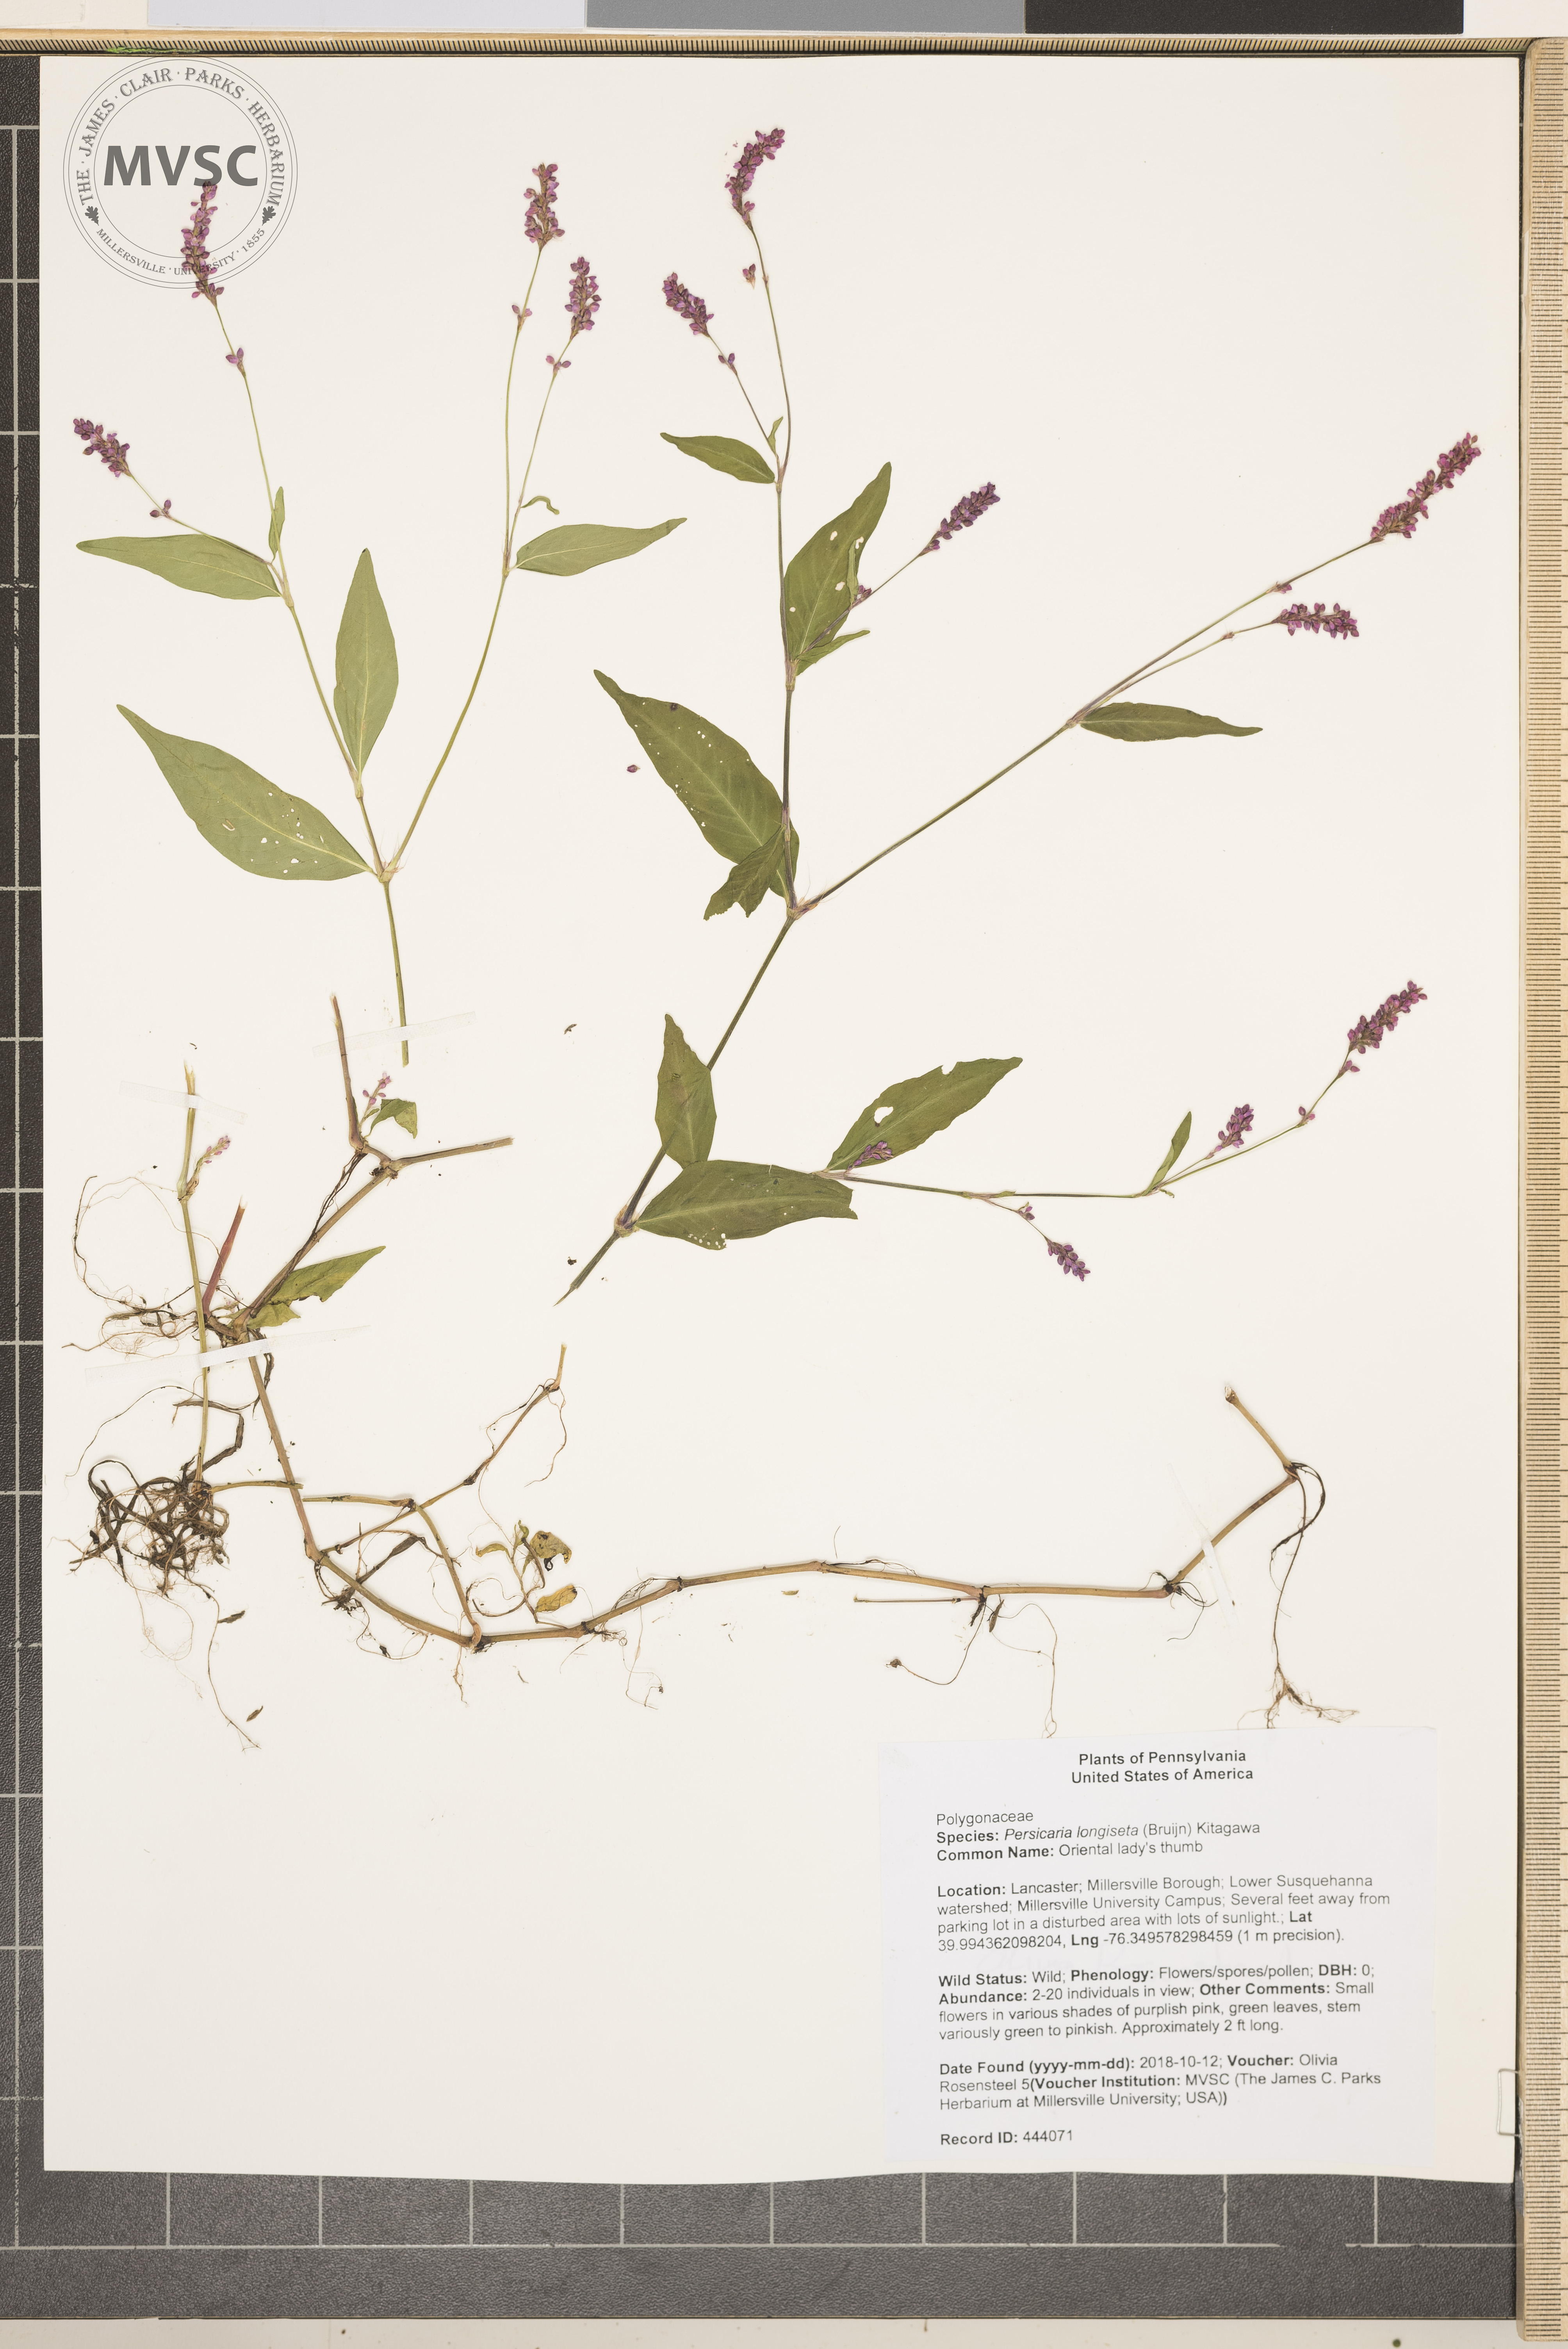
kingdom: Plantae
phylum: Tracheophyta
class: Magnoliopsida
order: Caryophyllales
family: Polygonaceae
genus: Persicaria
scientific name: Persicaria longiseta
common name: Oriental lady's thumb
